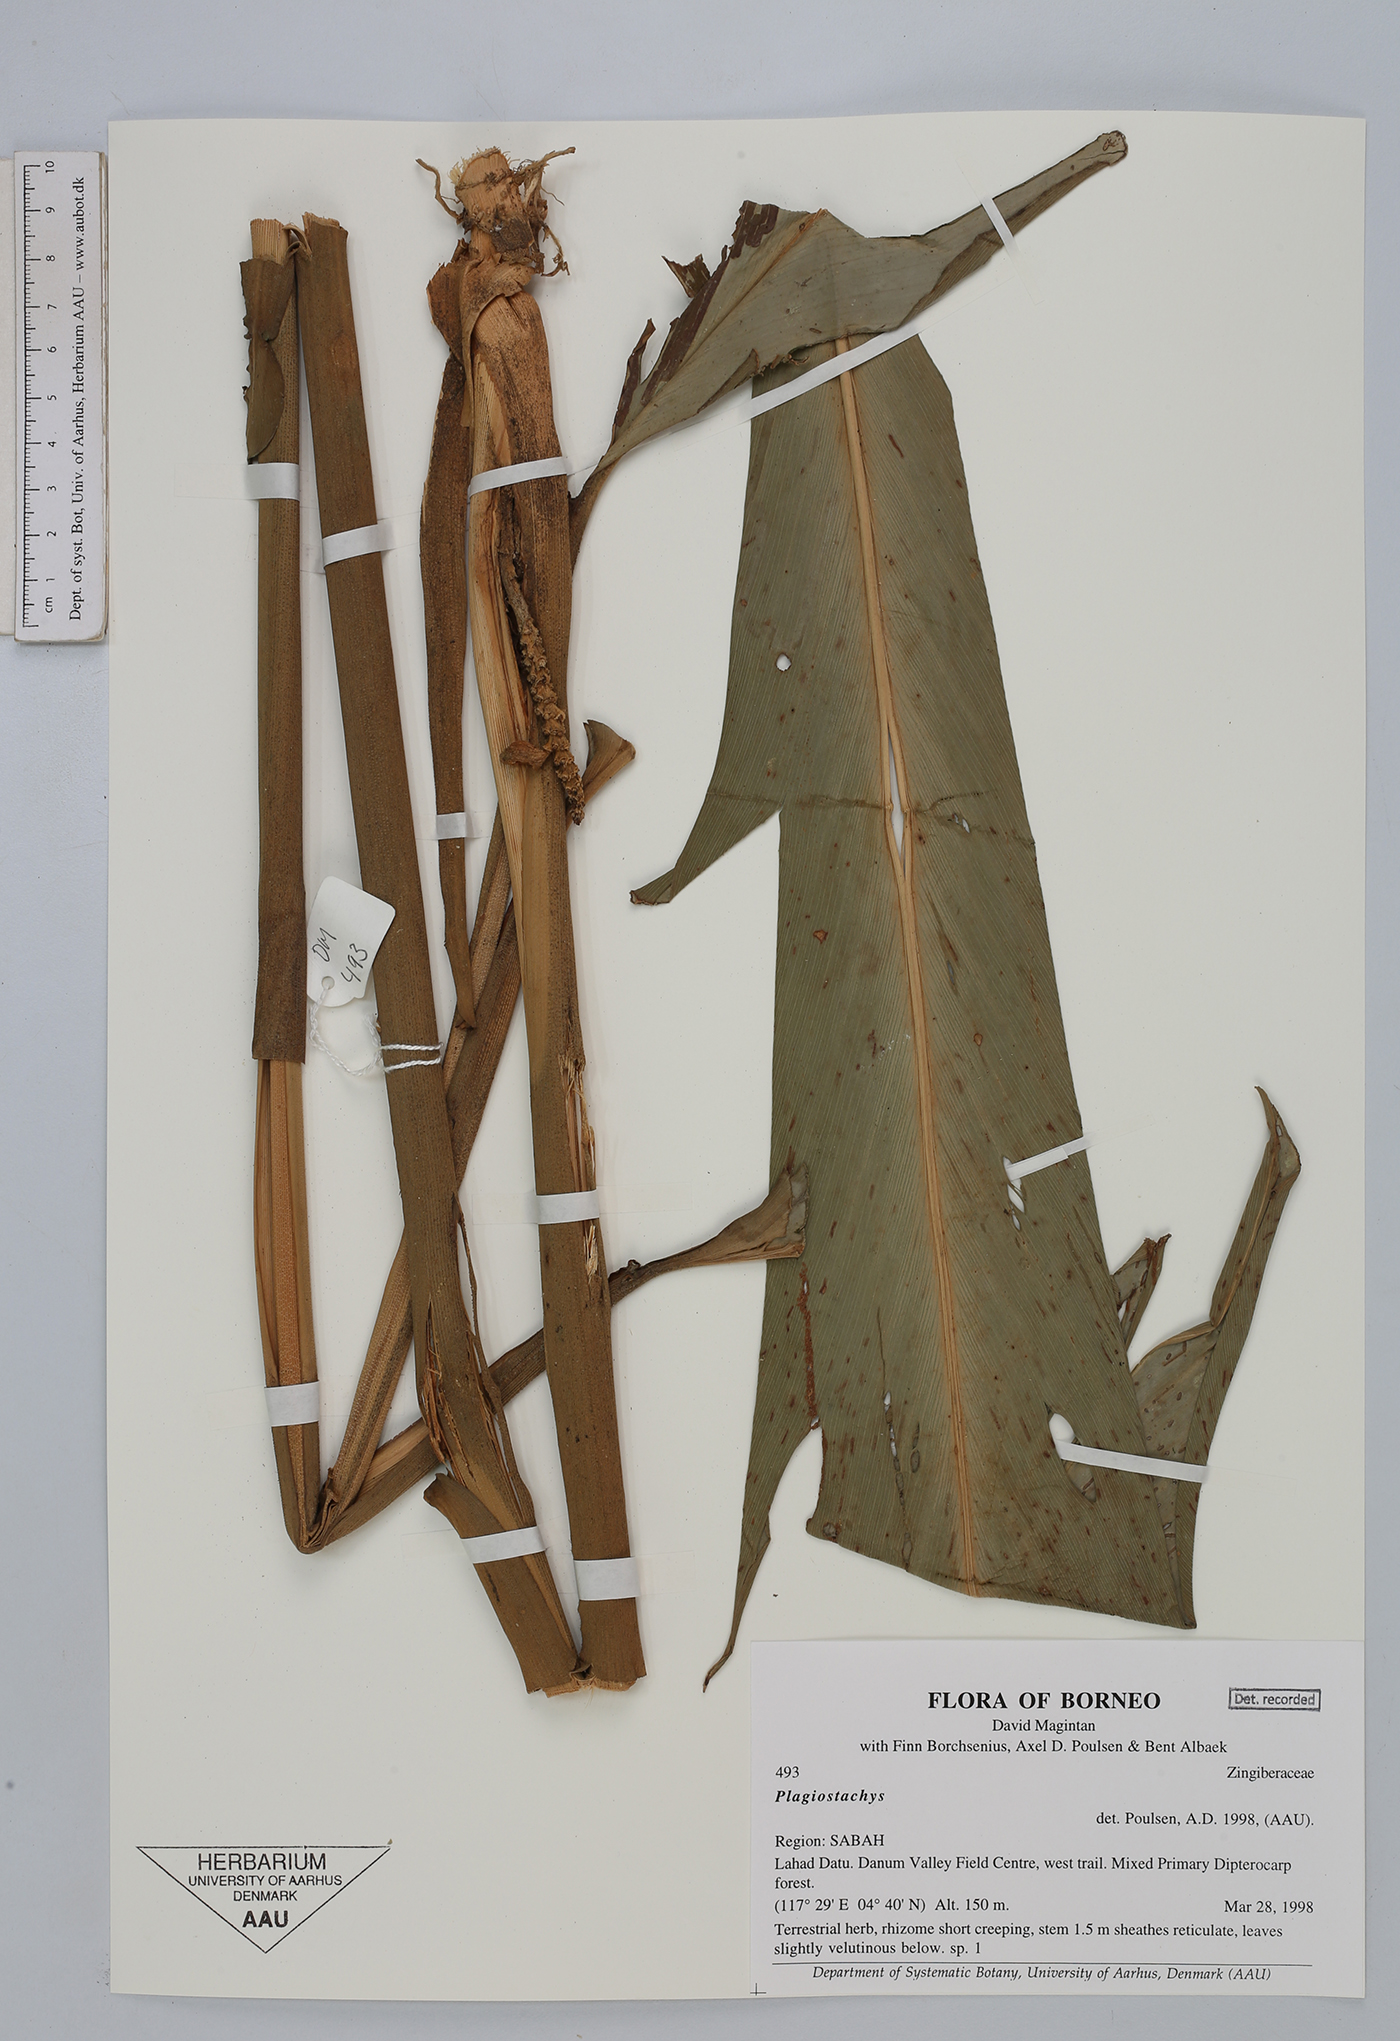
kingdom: Plantae
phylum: Tracheophyta
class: Liliopsida
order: Zingiberales
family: Zingiberaceae
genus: Plagiostachys
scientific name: Plagiostachys
